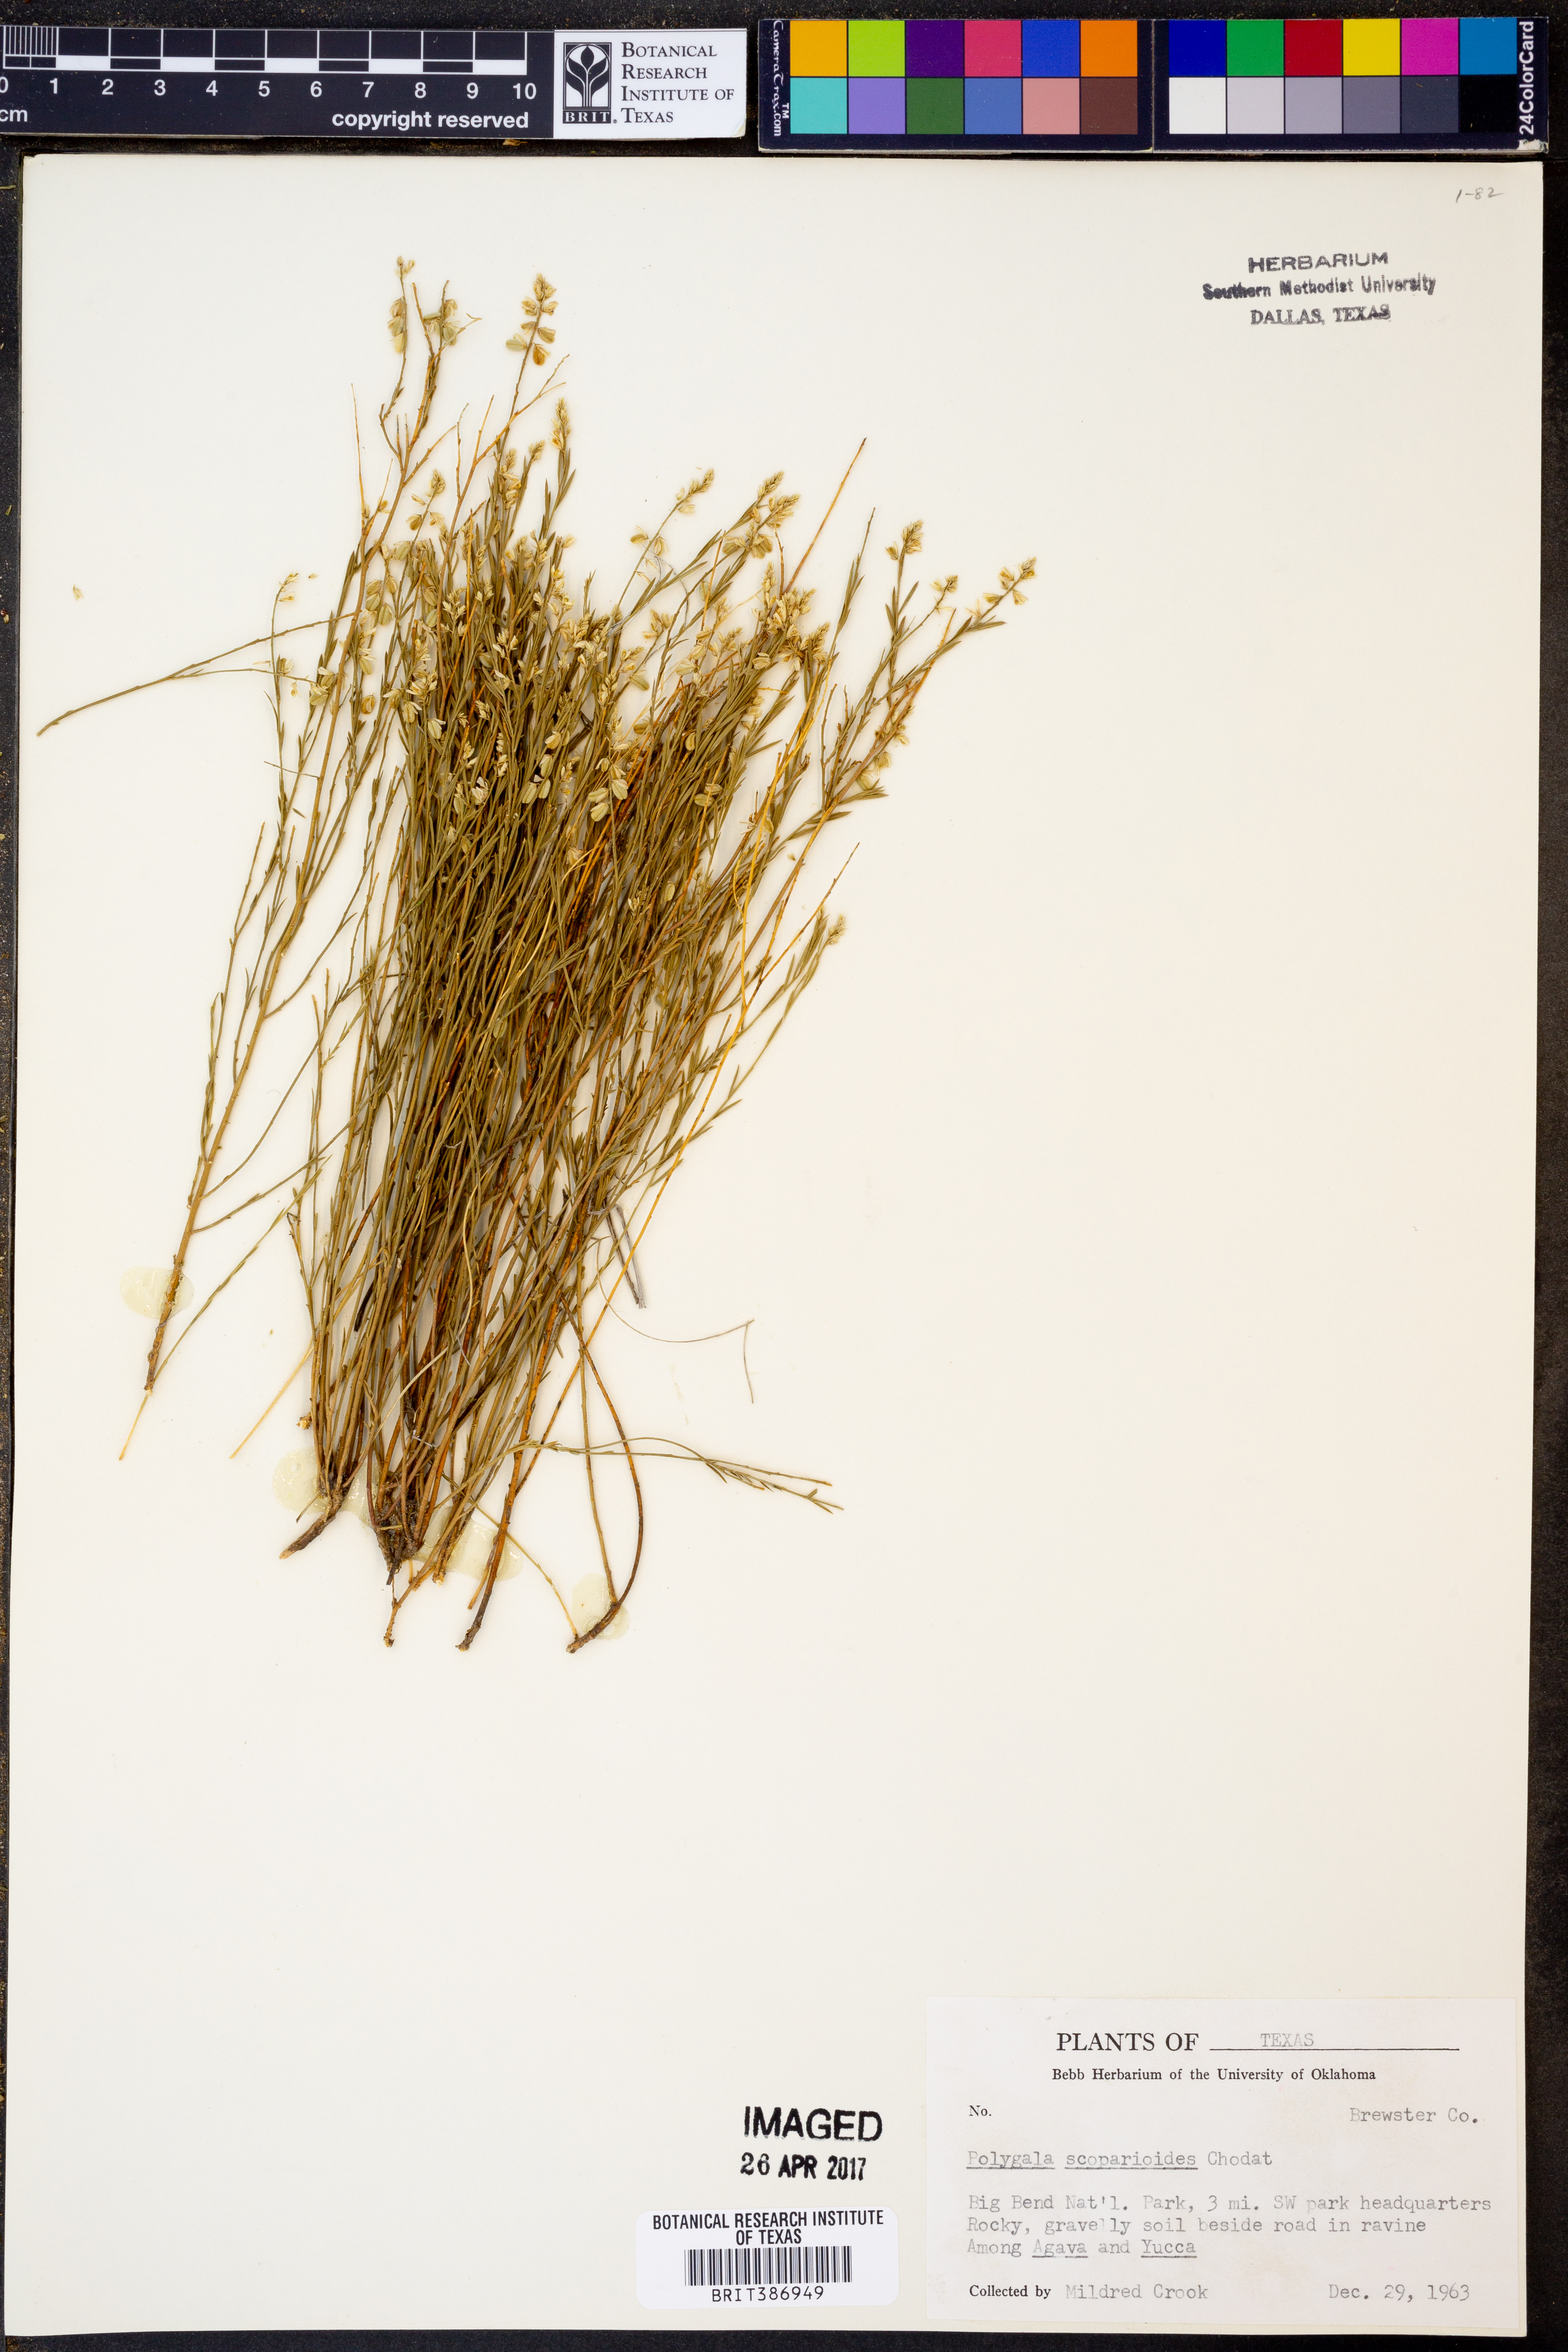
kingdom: Plantae
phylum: Tracheophyta
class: Magnoliopsida
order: Fabales
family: Polygalaceae
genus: Polygala
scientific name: Polygala scoparioides
